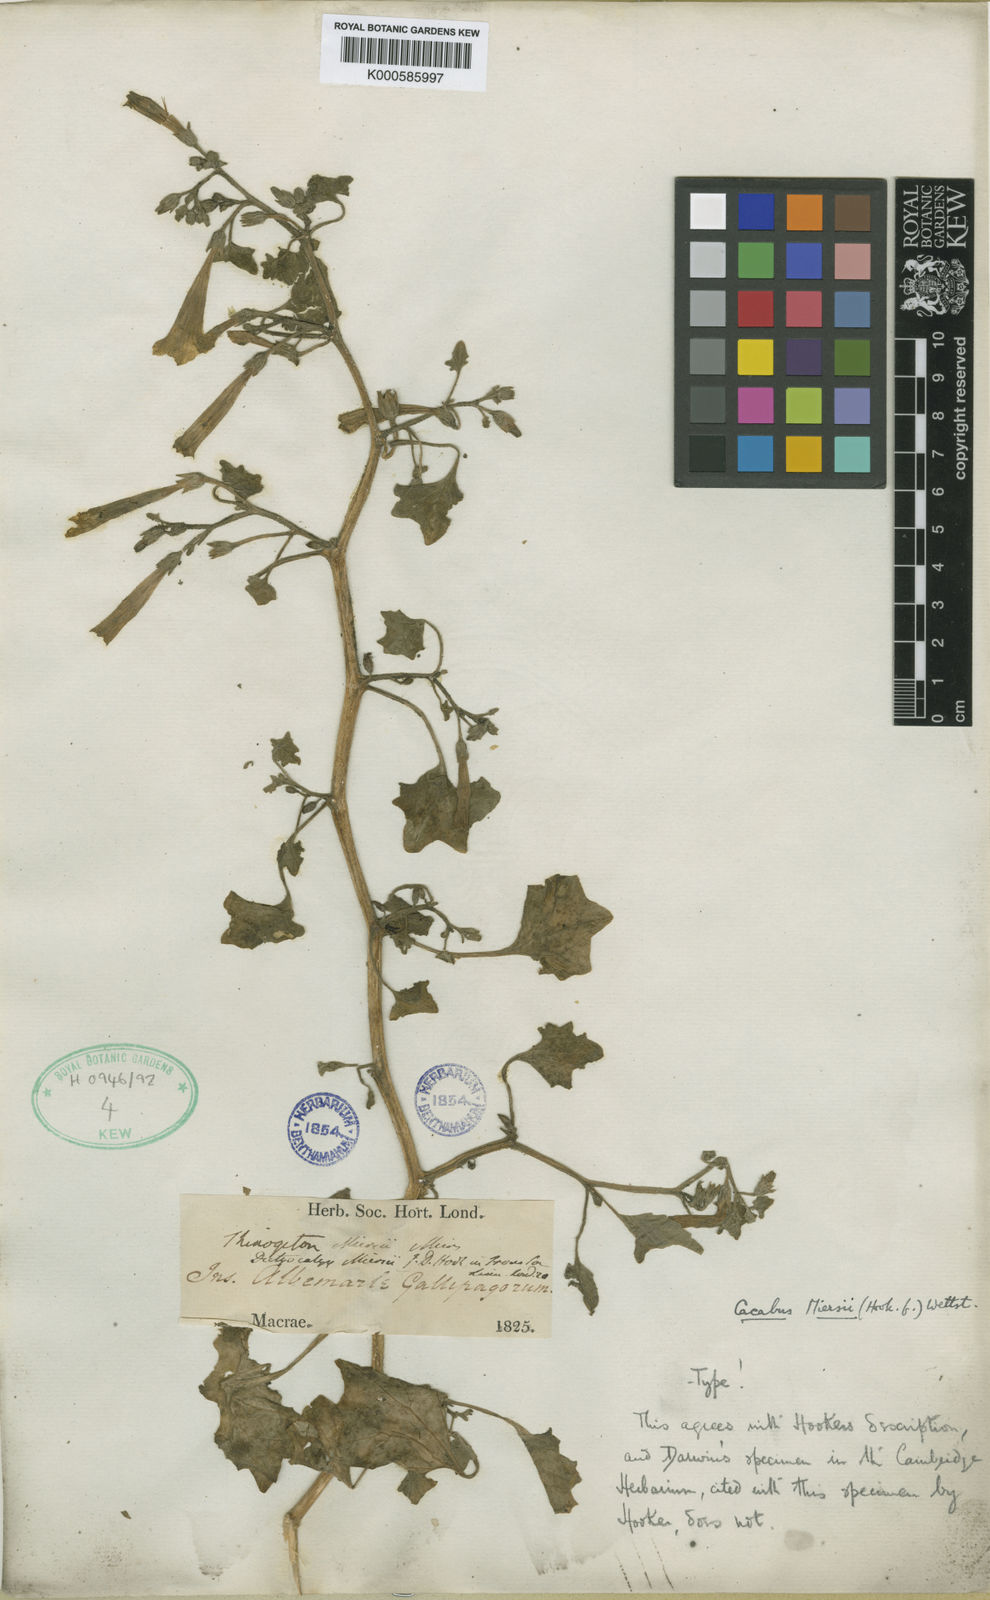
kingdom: Plantae
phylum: Tracheophyta
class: Magnoliopsida
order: Solanales
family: Solanaceae
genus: Exodeconus
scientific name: Exodeconus miersii
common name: Galapagos shore petunia
